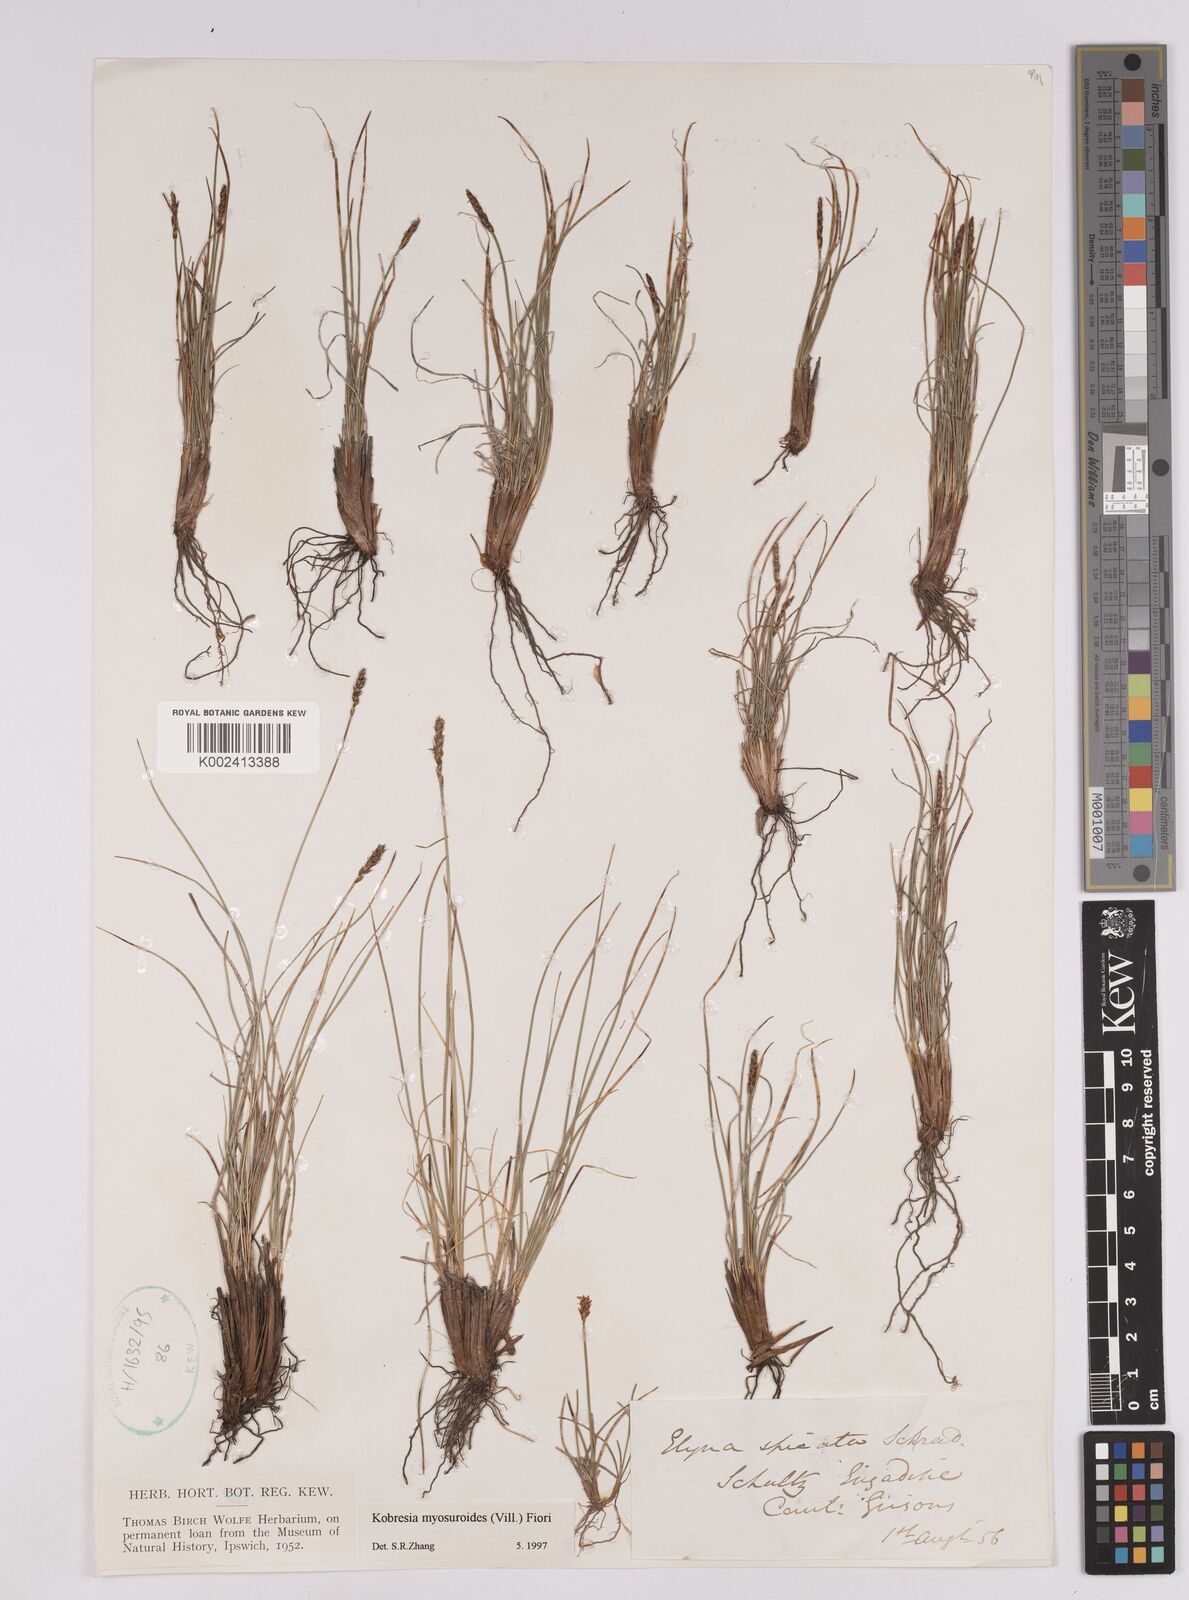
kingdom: Plantae
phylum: Tracheophyta
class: Liliopsida
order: Poales
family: Cyperaceae
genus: Carex
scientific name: Carex myosuroides
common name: Bellard's bog sedge
